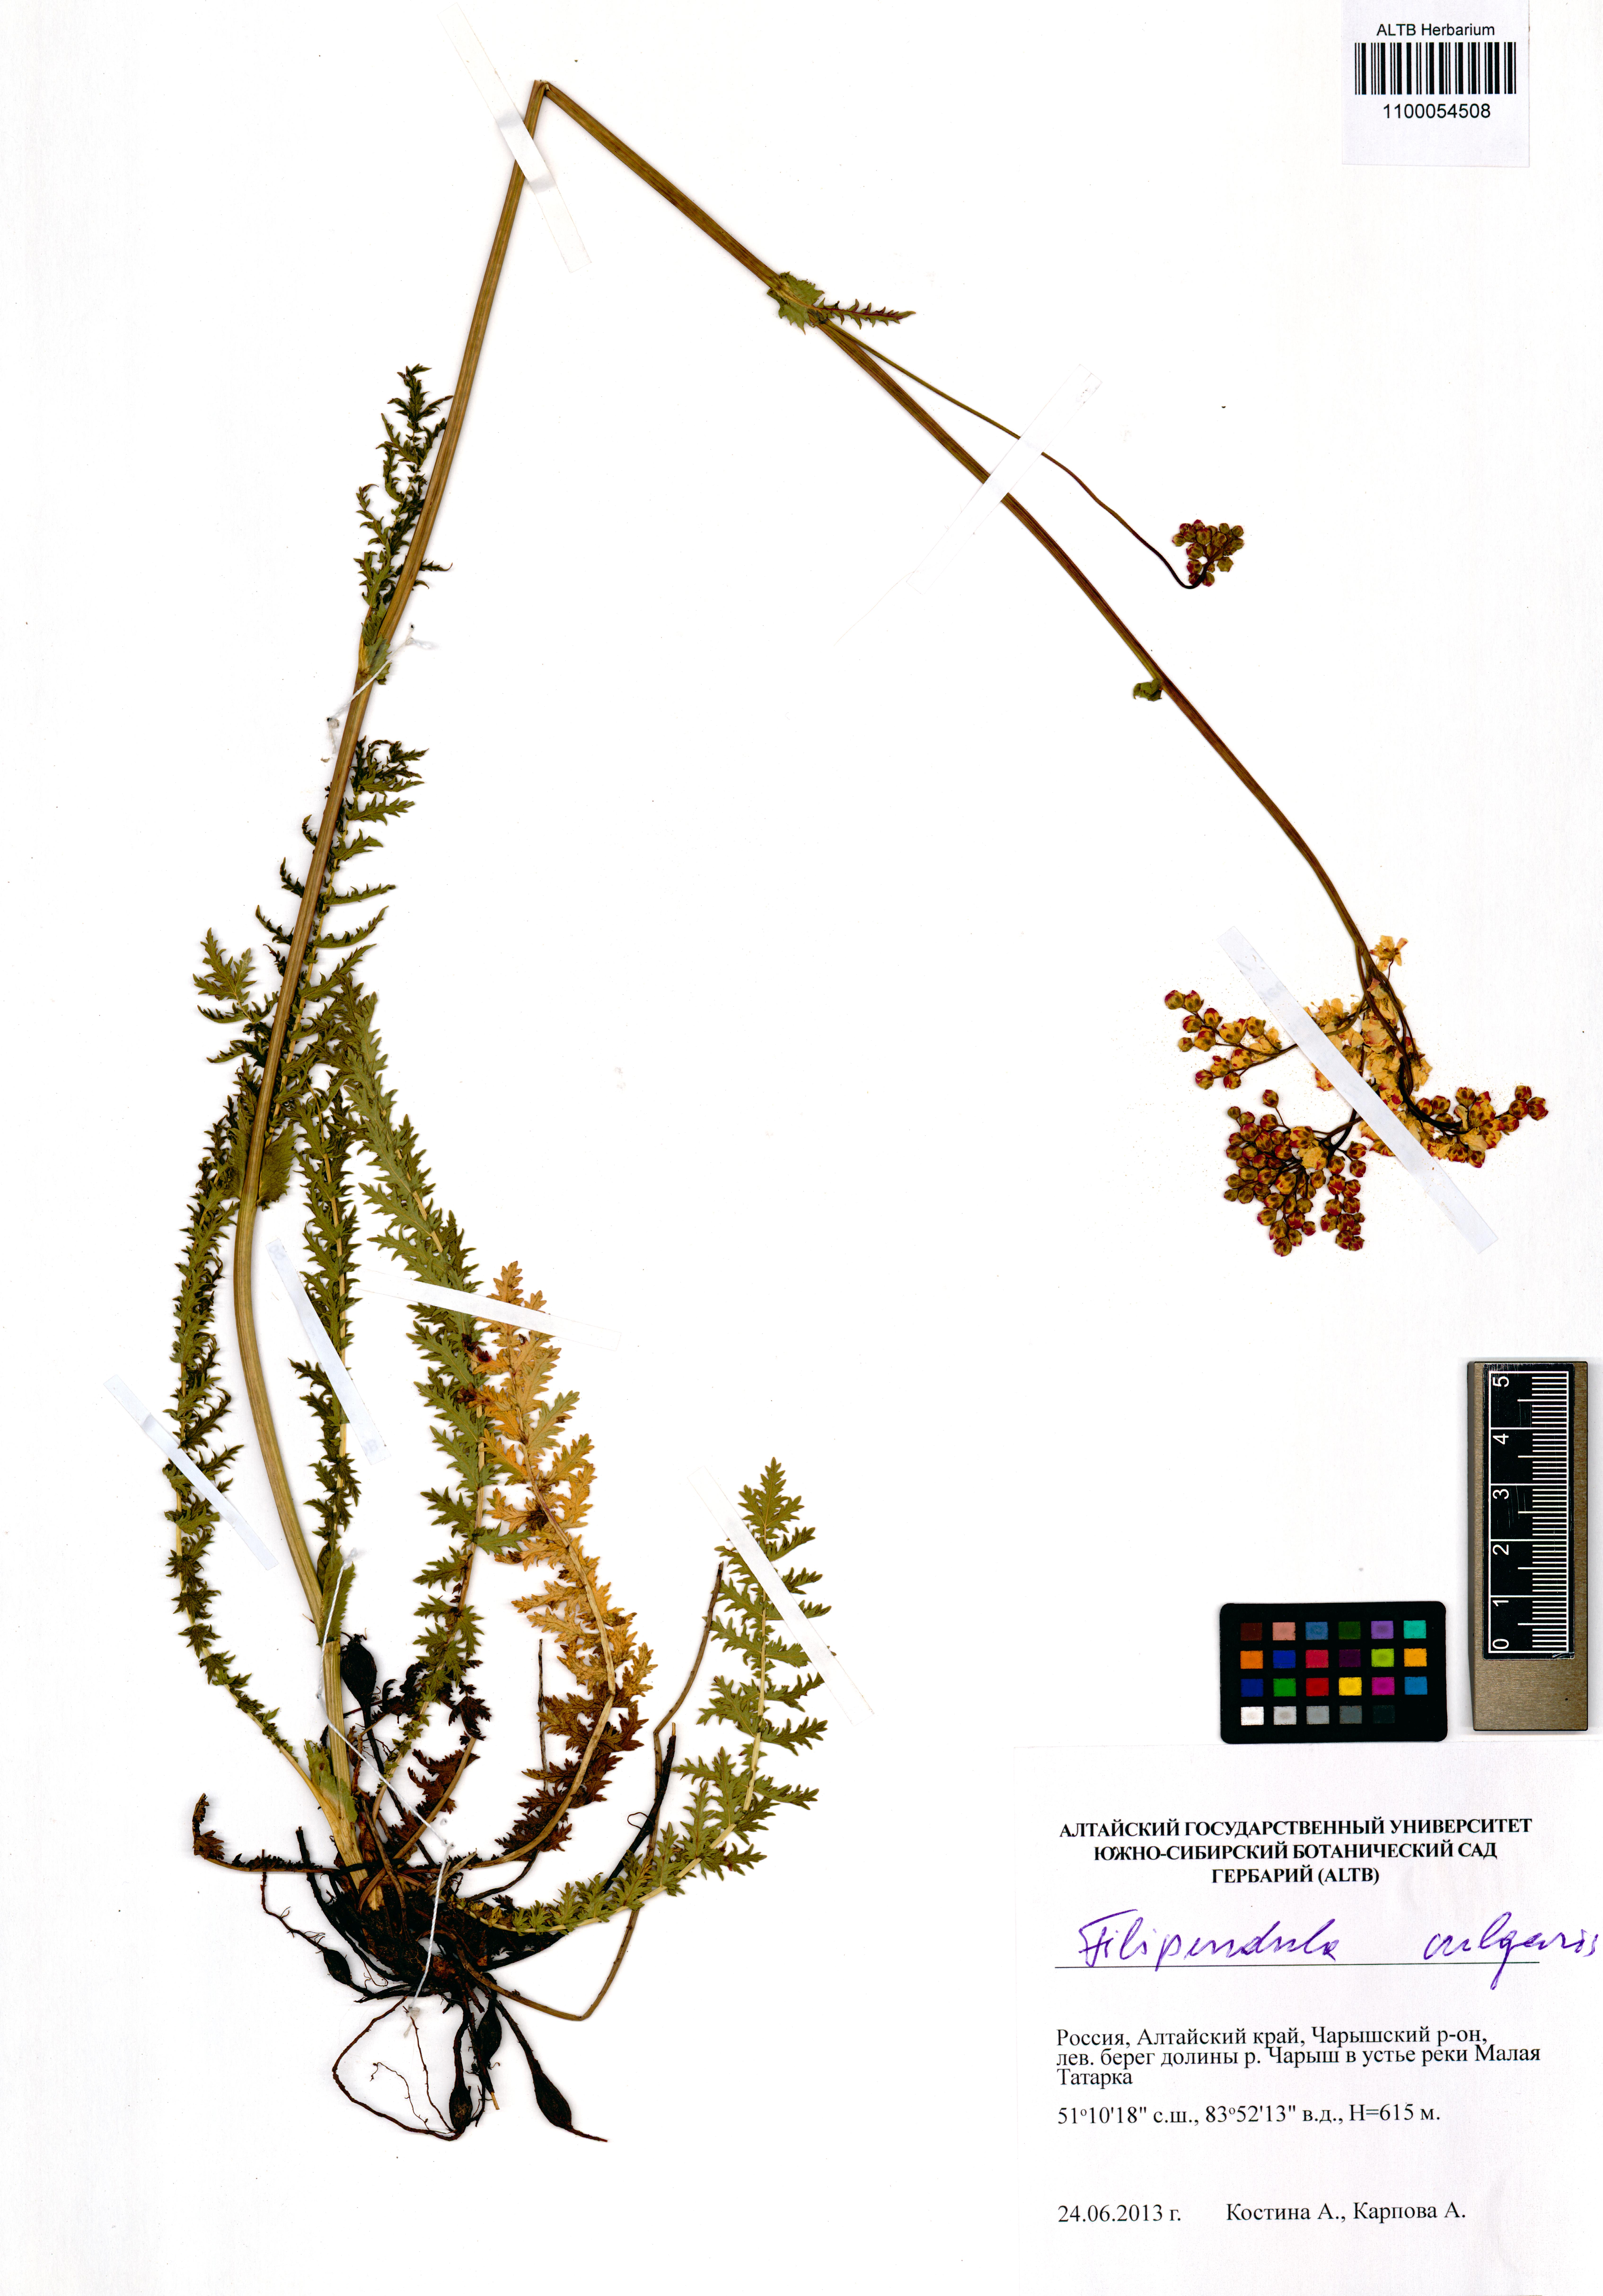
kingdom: Plantae
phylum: Tracheophyta
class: Magnoliopsida
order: Rosales
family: Rosaceae
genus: Filipendula
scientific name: Filipendula vulgaris
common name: Dropwort
